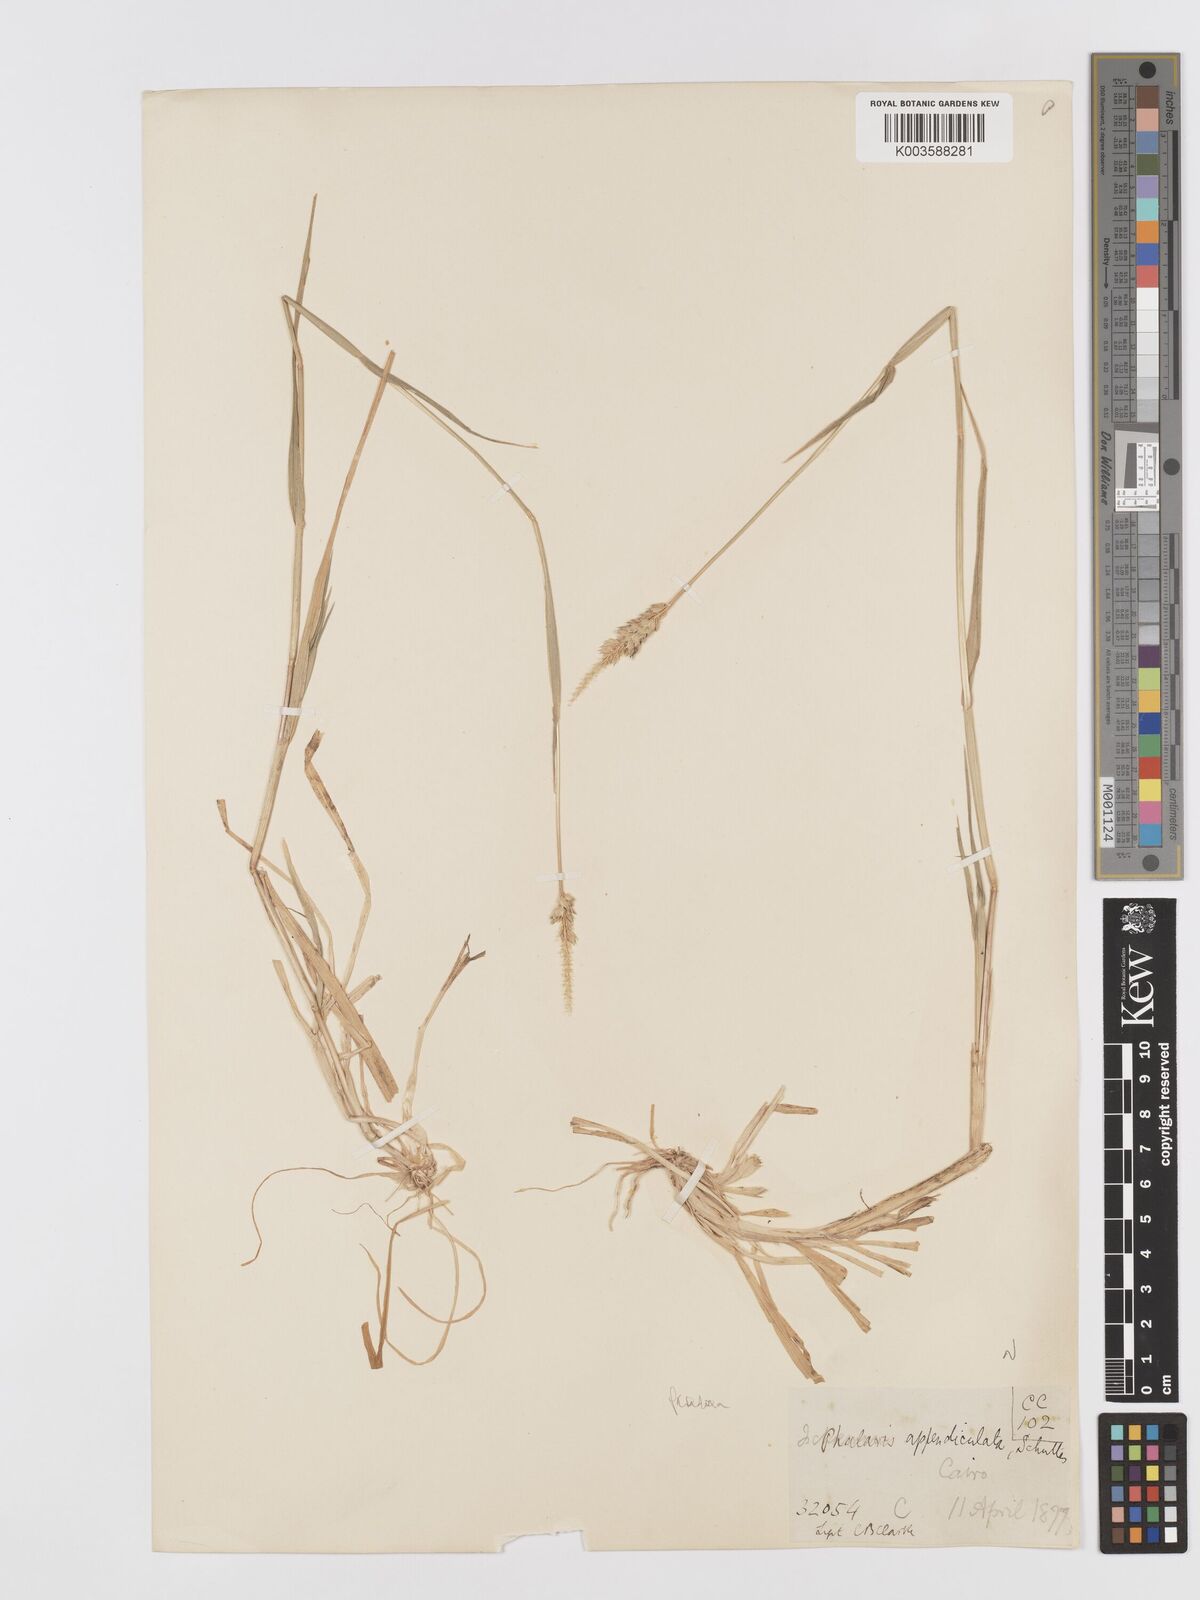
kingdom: Plantae
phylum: Tracheophyta
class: Liliopsida
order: Poales
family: Poaceae
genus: Phalaris
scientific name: Phalaris paradoxa
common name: Awned canary-grass
